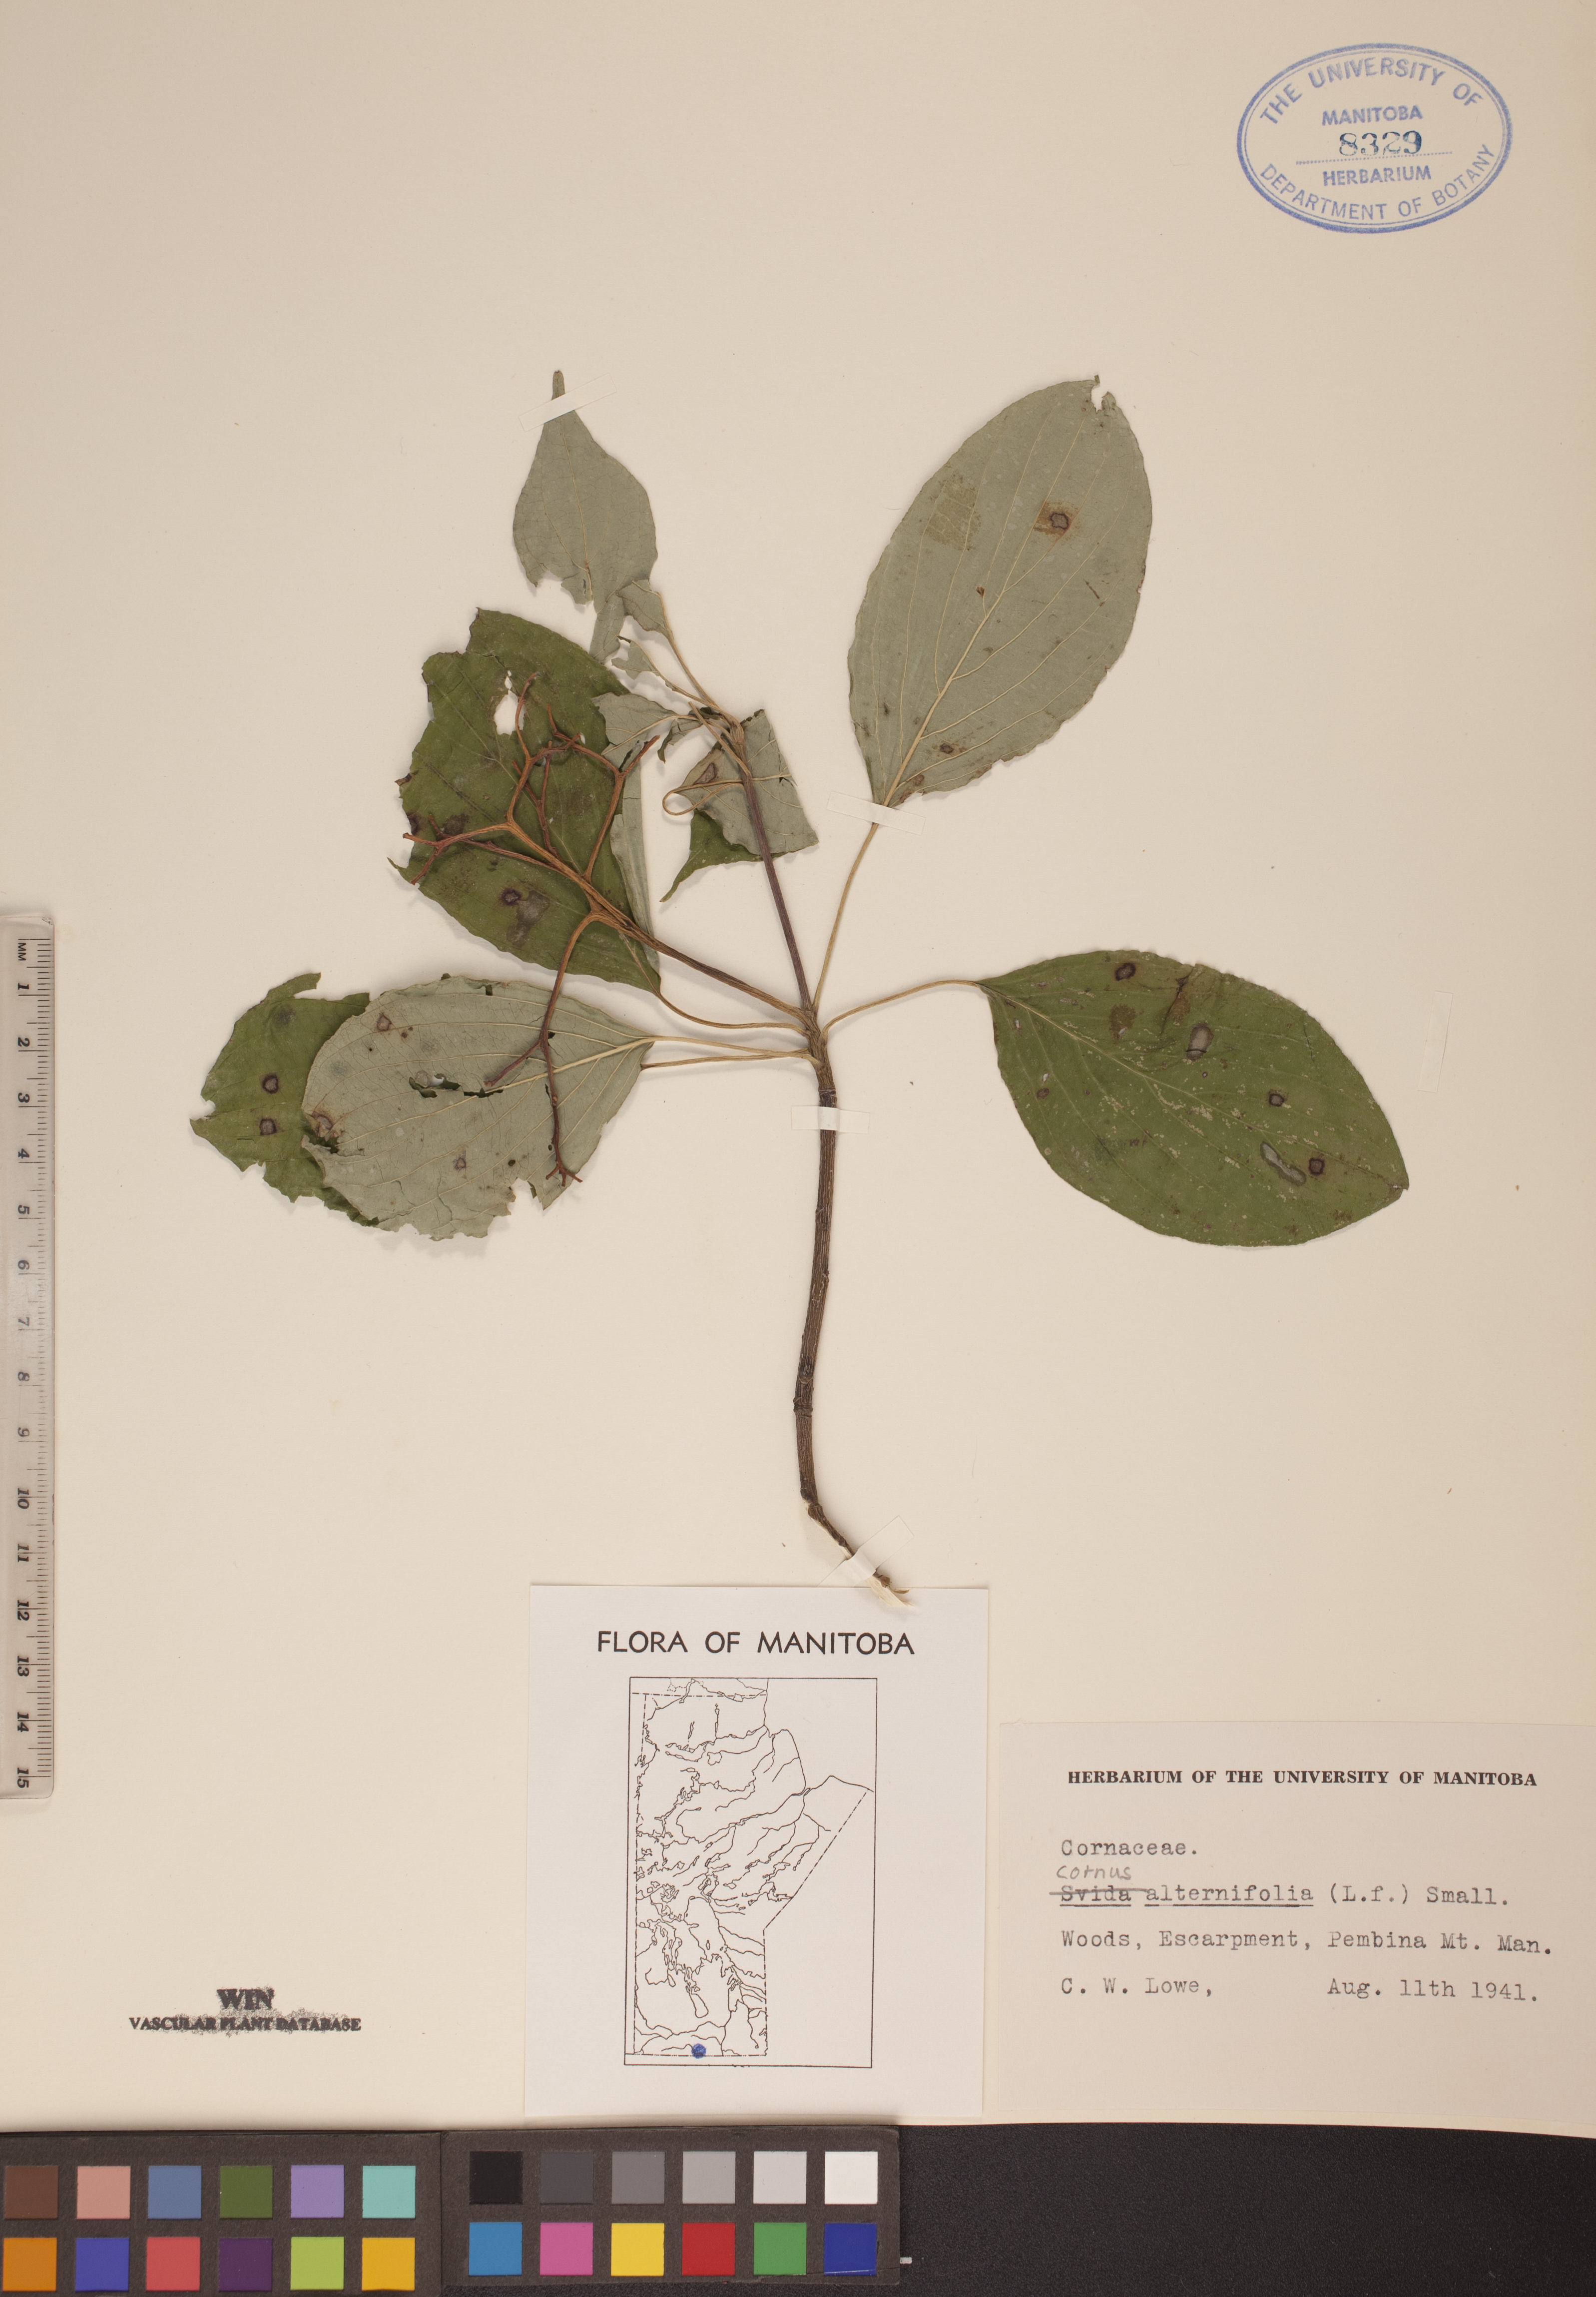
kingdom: Plantae
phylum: Tracheophyta
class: Magnoliopsida
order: Cornales
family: Cornaceae
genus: Cornus
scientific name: Cornus alternifolia
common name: Pagoda dogwood
